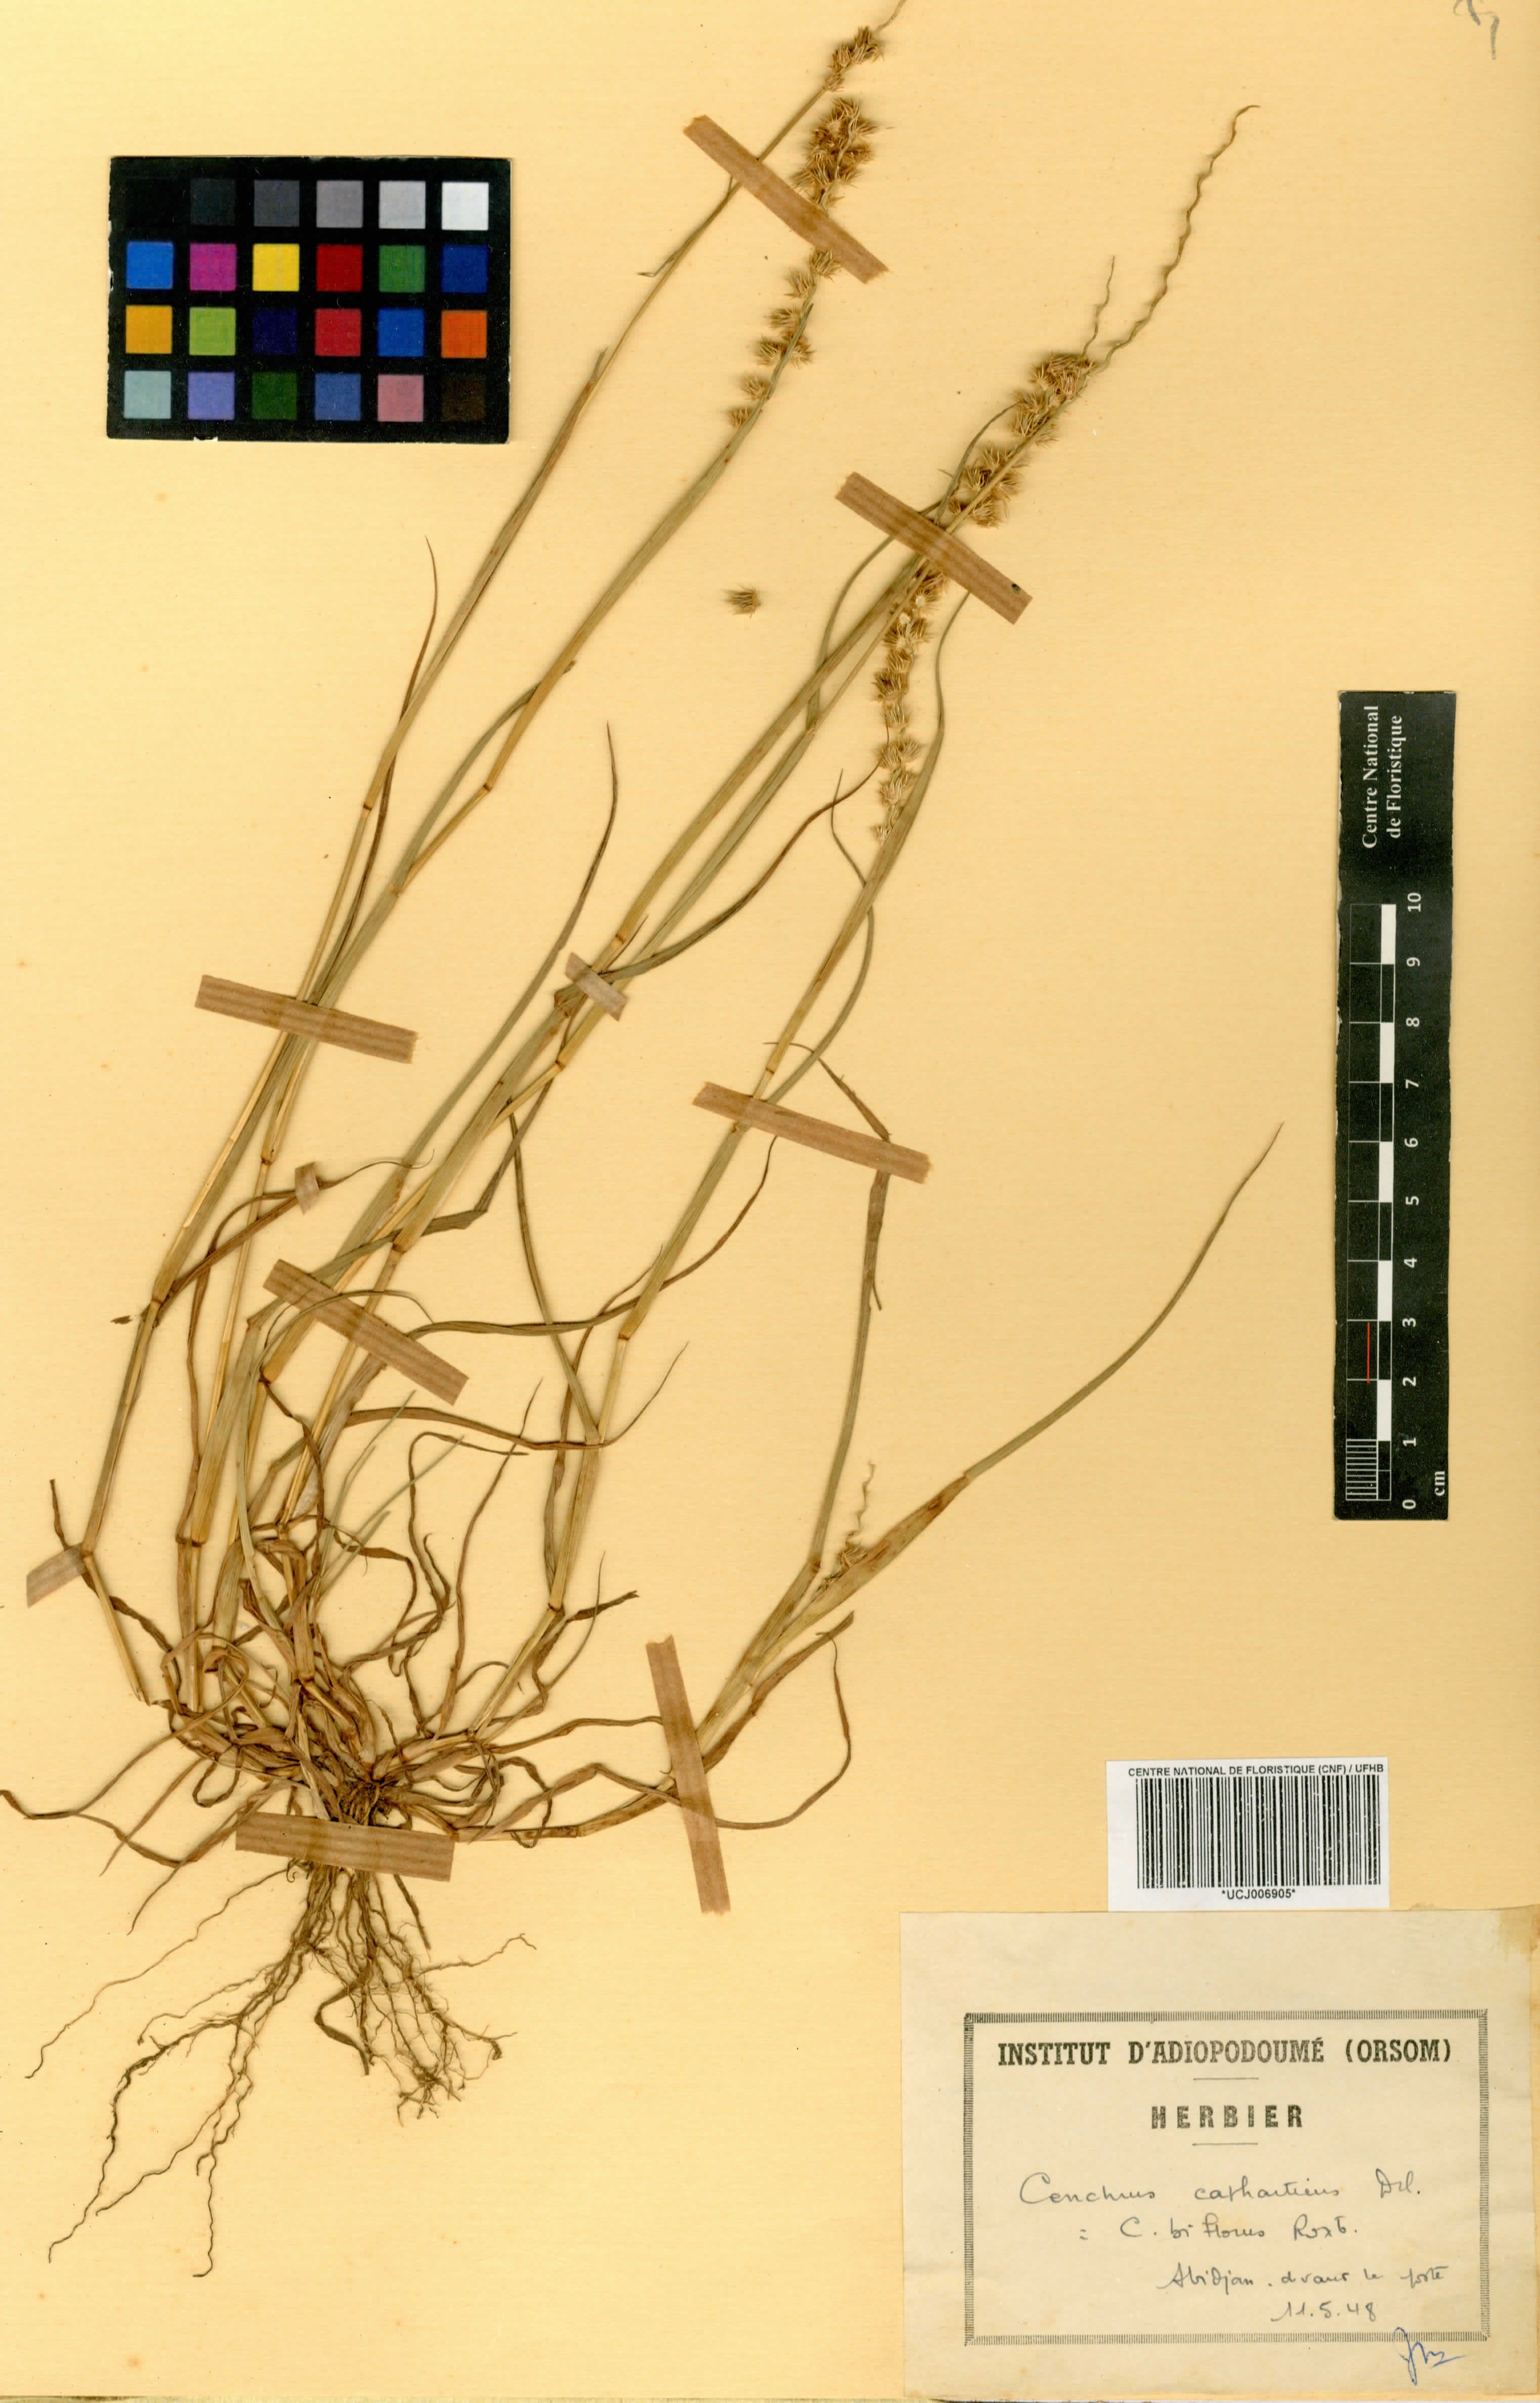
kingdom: Plantae
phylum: Tracheophyta
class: Liliopsida
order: Poales
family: Poaceae
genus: Cenchrus
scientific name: Cenchrus biflorus
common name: Indian sandbur
